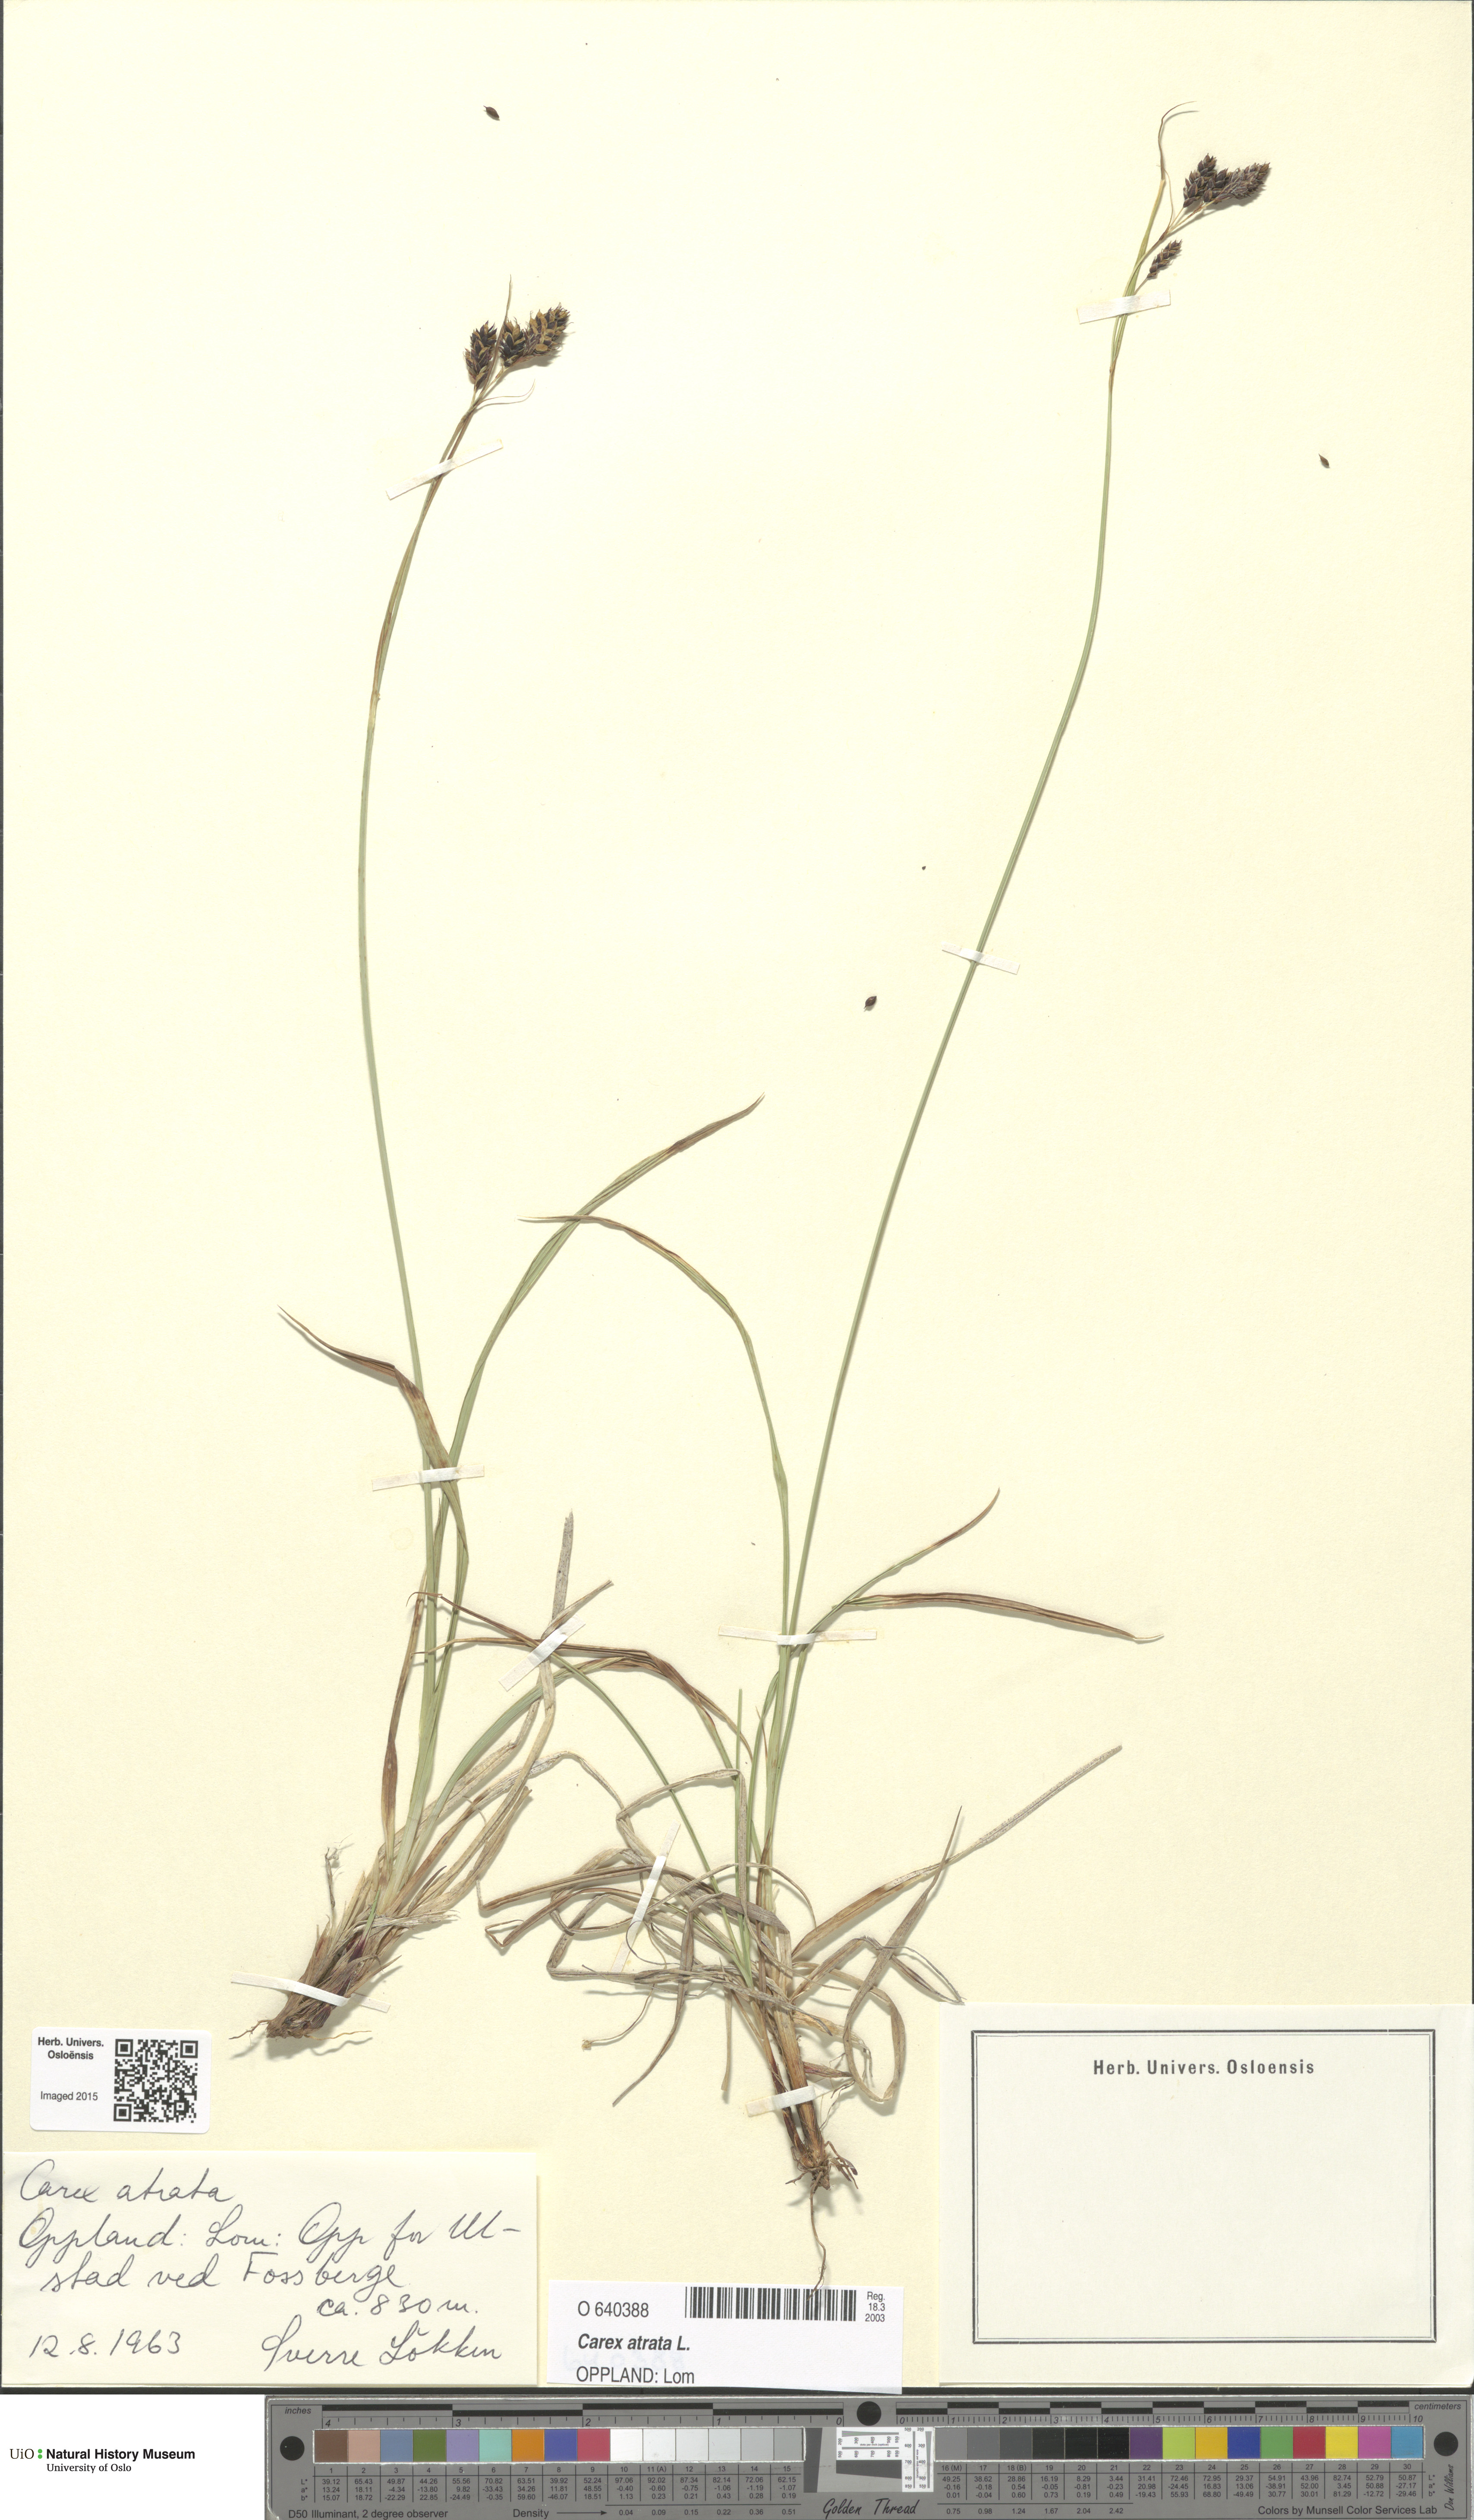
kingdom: Plantae
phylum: Tracheophyta
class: Liliopsida
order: Poales
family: Cyperaceae
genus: Carex
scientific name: Carex atrata
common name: Black alpine sedge
